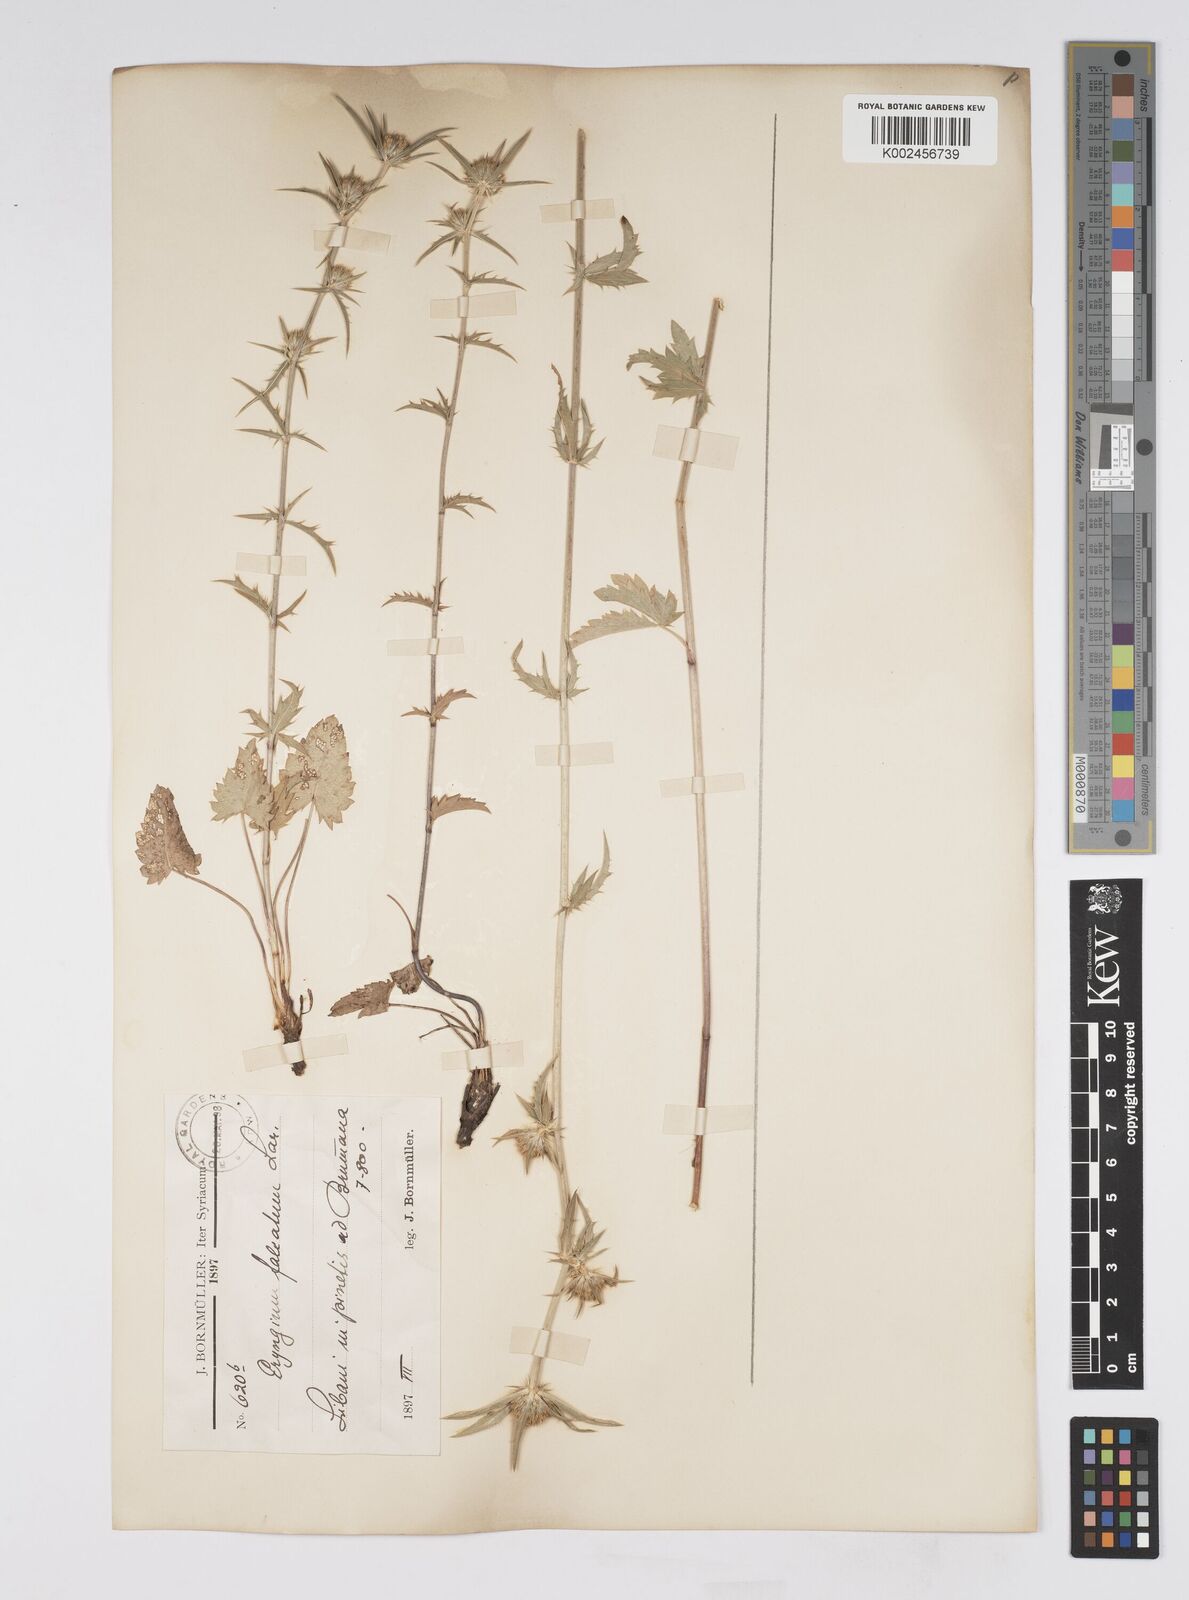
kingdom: Plantae
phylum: Tracheophyta
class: Magnoliopsida
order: Apiales
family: Apiaceae
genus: Eryngium
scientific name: Eryngium falcatum
